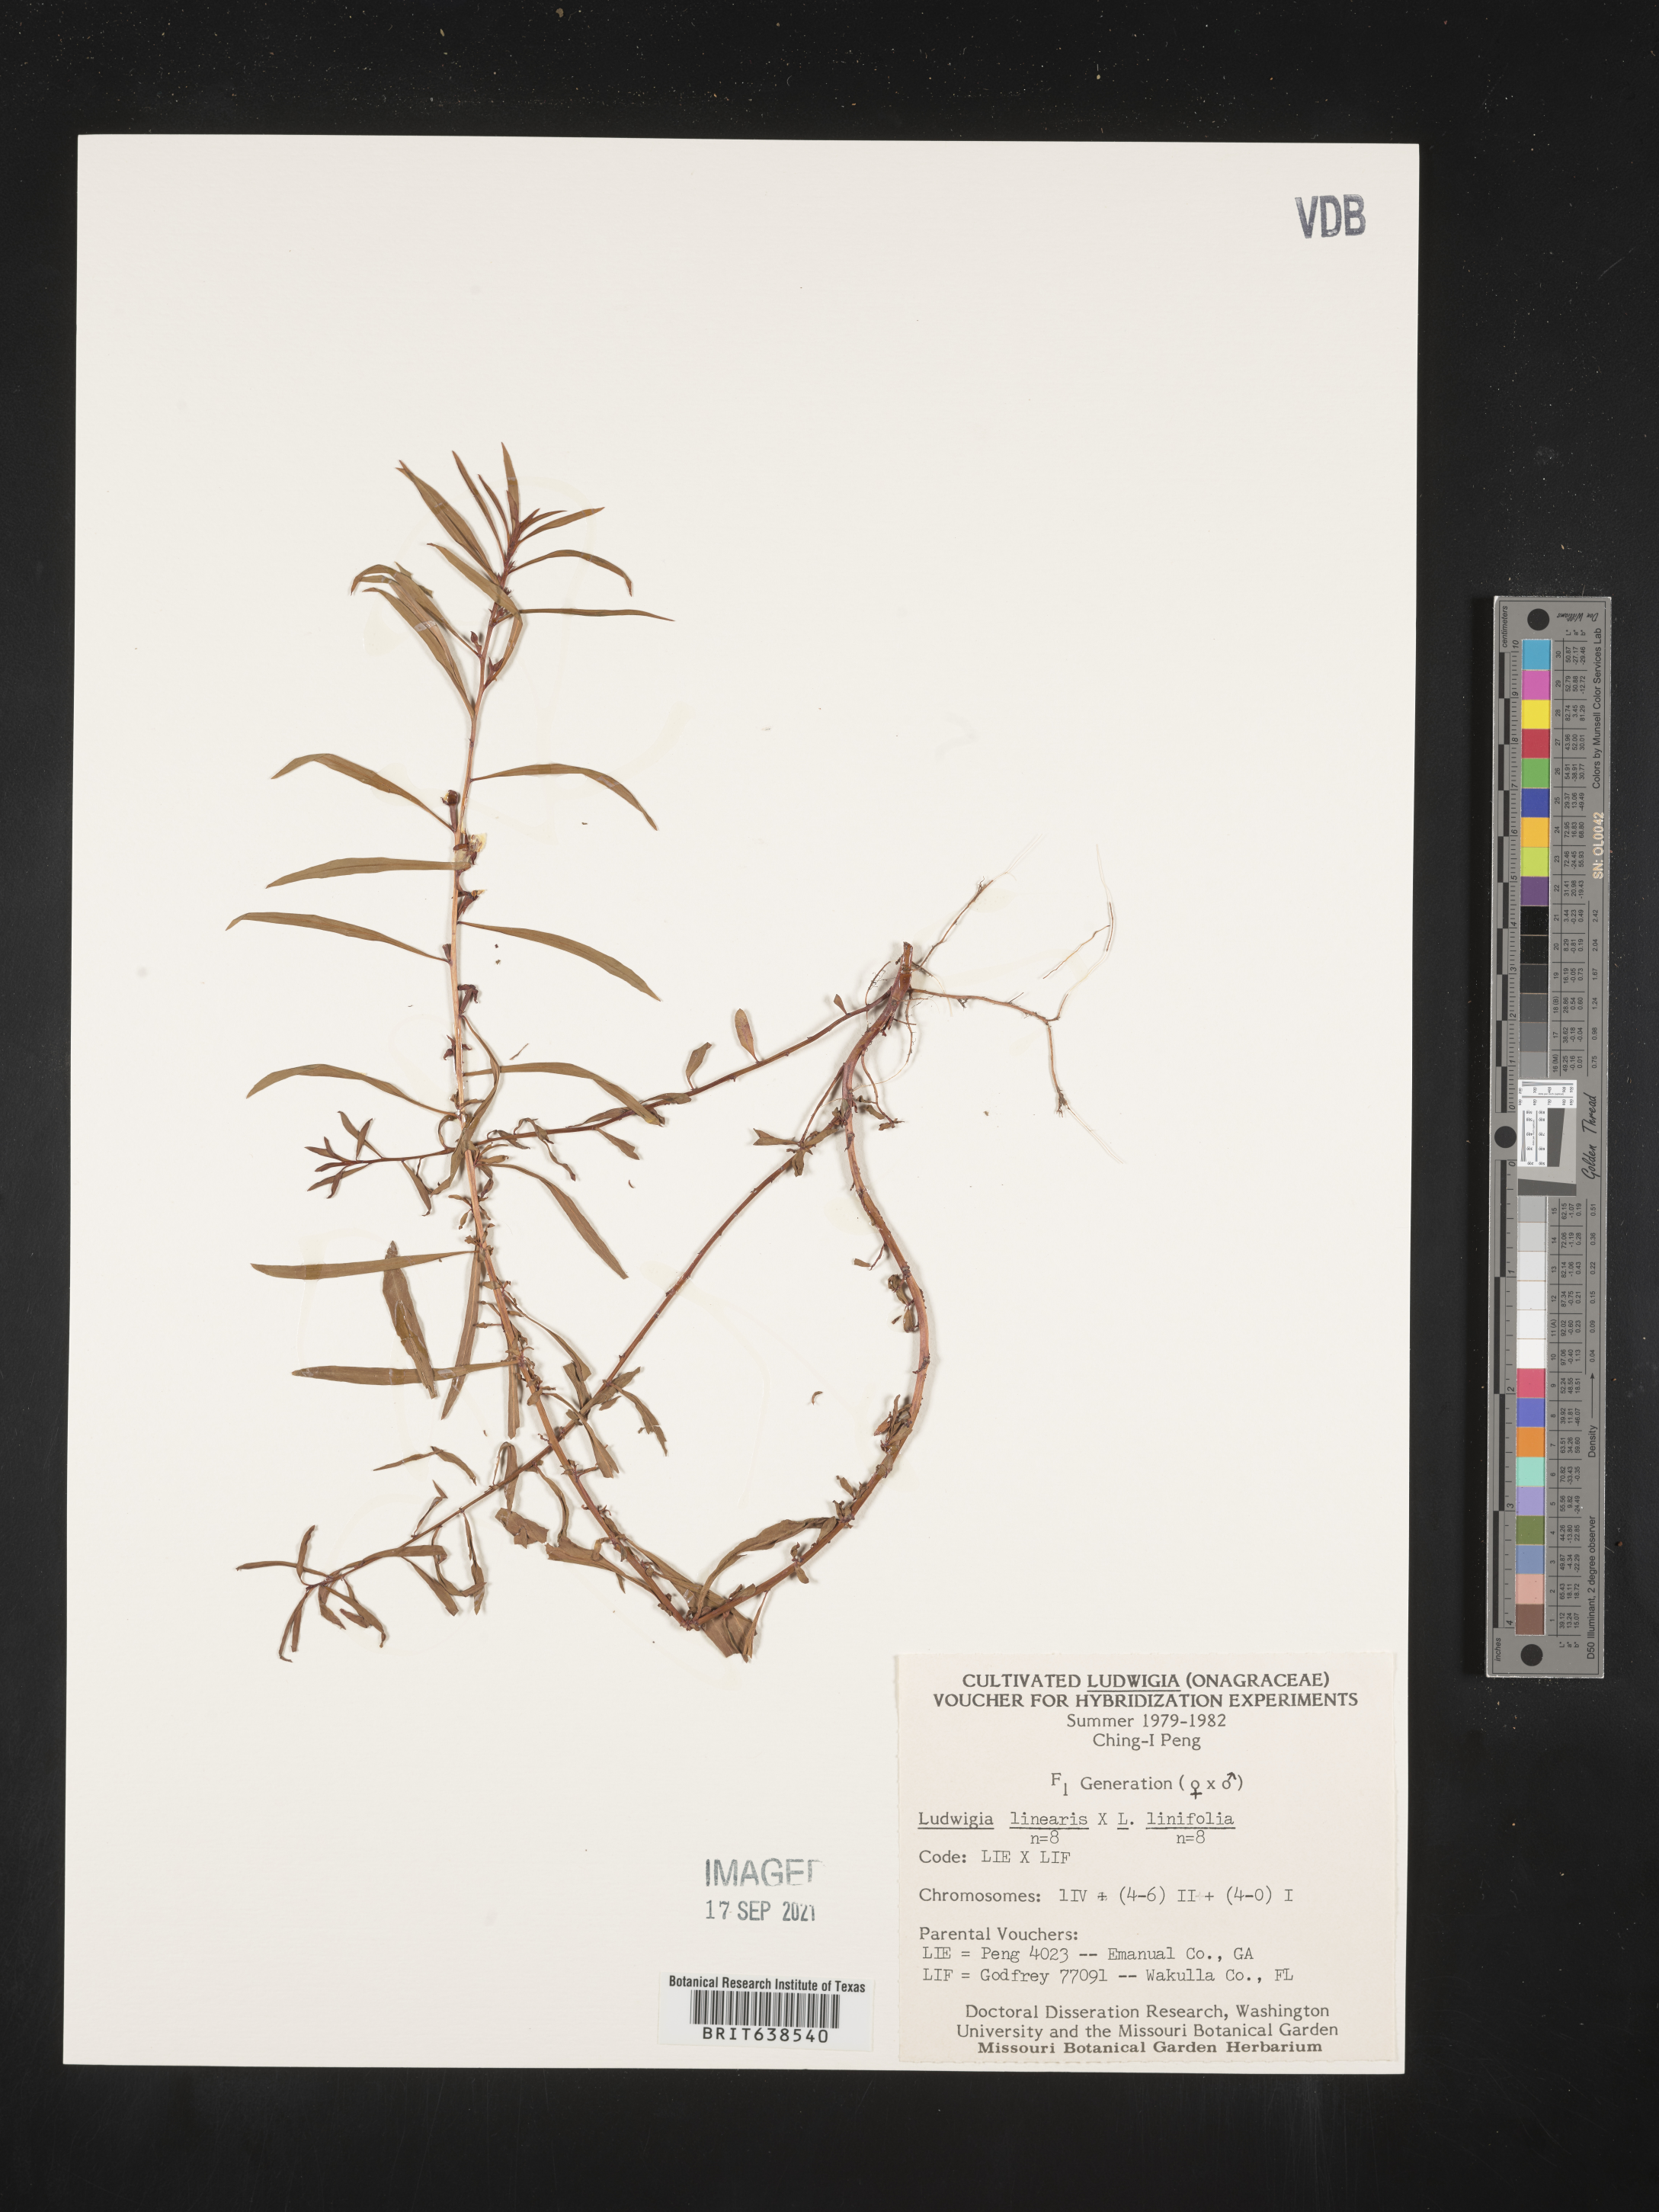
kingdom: Plantae
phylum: Tracheophyta
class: Magnoliopsida
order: Myrtales
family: Onagraceae
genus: Ludwigia
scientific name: Ludwigia
